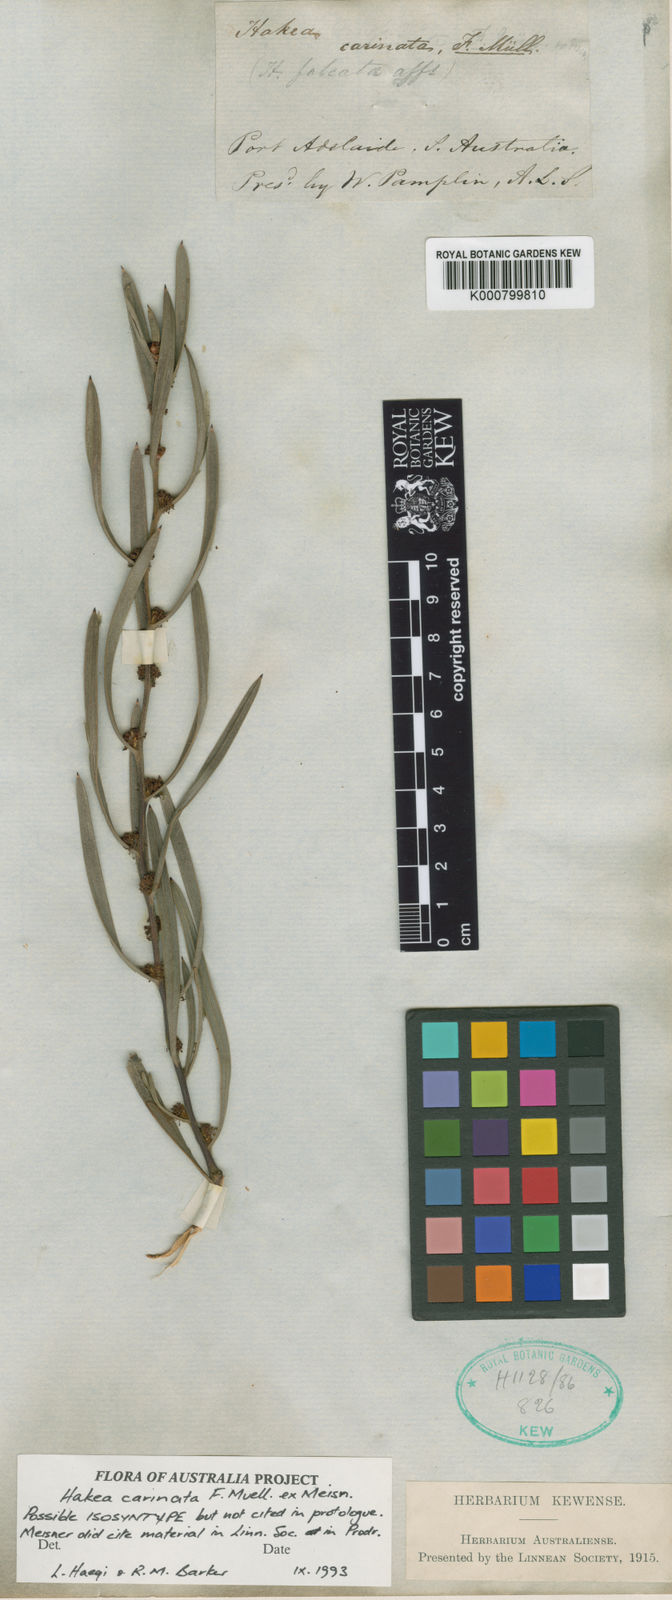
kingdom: Plantae
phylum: Tracheophyta
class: Magnoliopsida
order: Proteales
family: Proteaceae
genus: Hakea
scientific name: Hakea carinata
